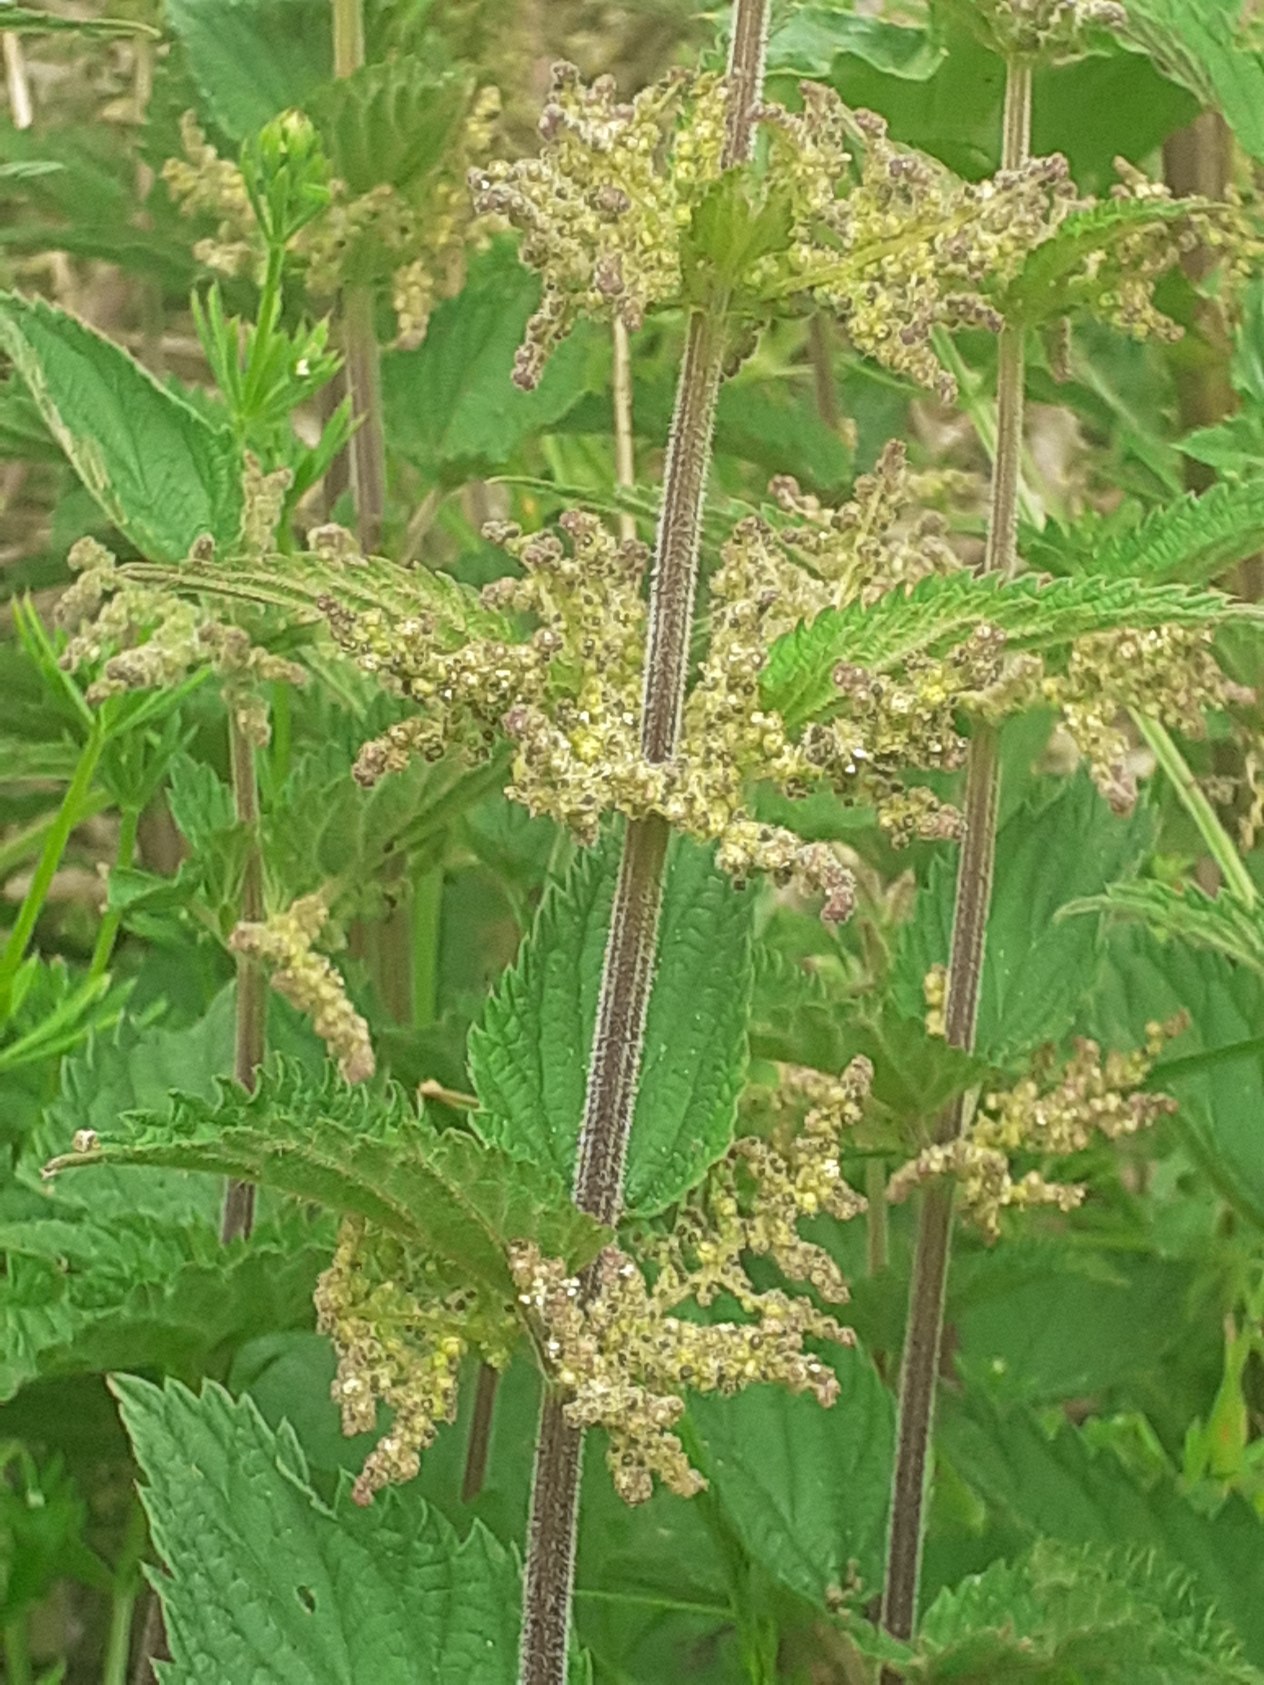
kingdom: Plantae
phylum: Tracheophyta
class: Magnoliopsida
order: Rosales
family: Urticaceae
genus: Urtica
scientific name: Urtica dioica
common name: Stor nælde
